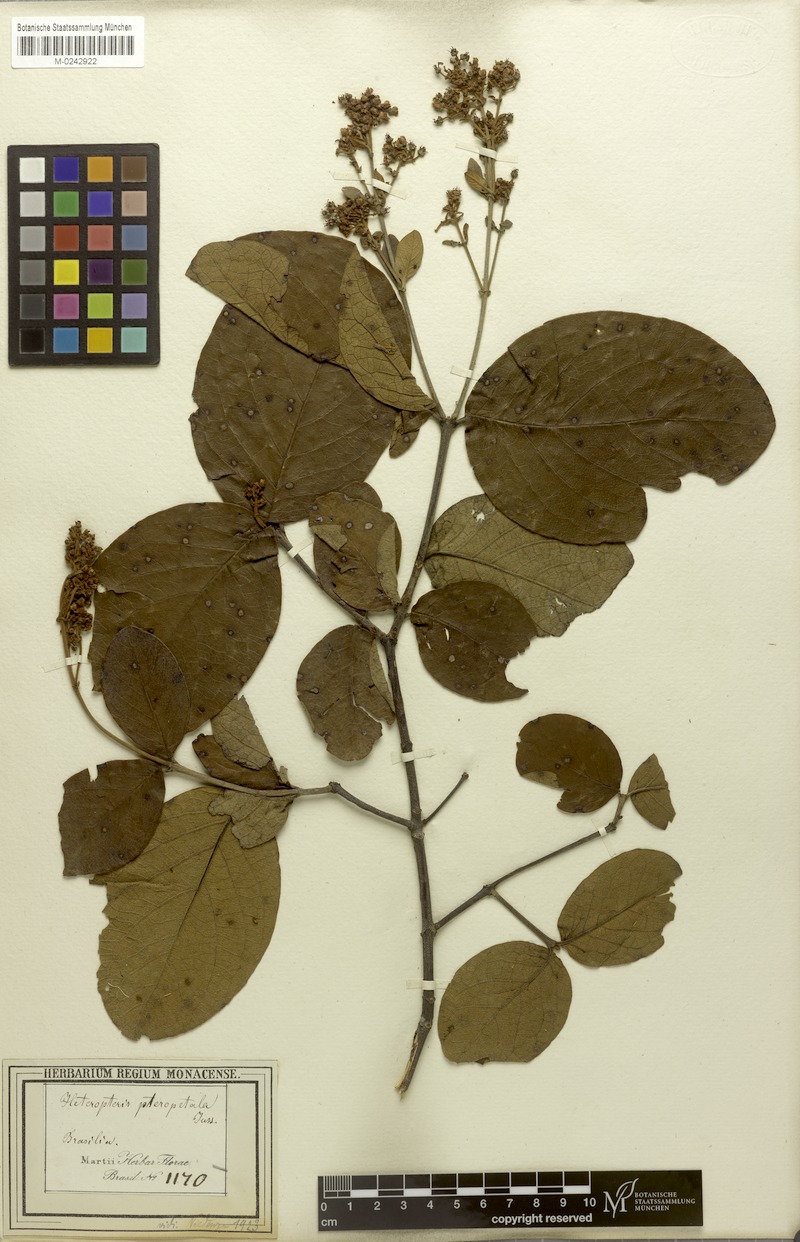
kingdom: Plantae
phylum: Tracheophyta
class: Magnoliopsida
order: Malpighiales
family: Malpighiaceae
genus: Heteropterys
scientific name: Heteropterys pteropetala
